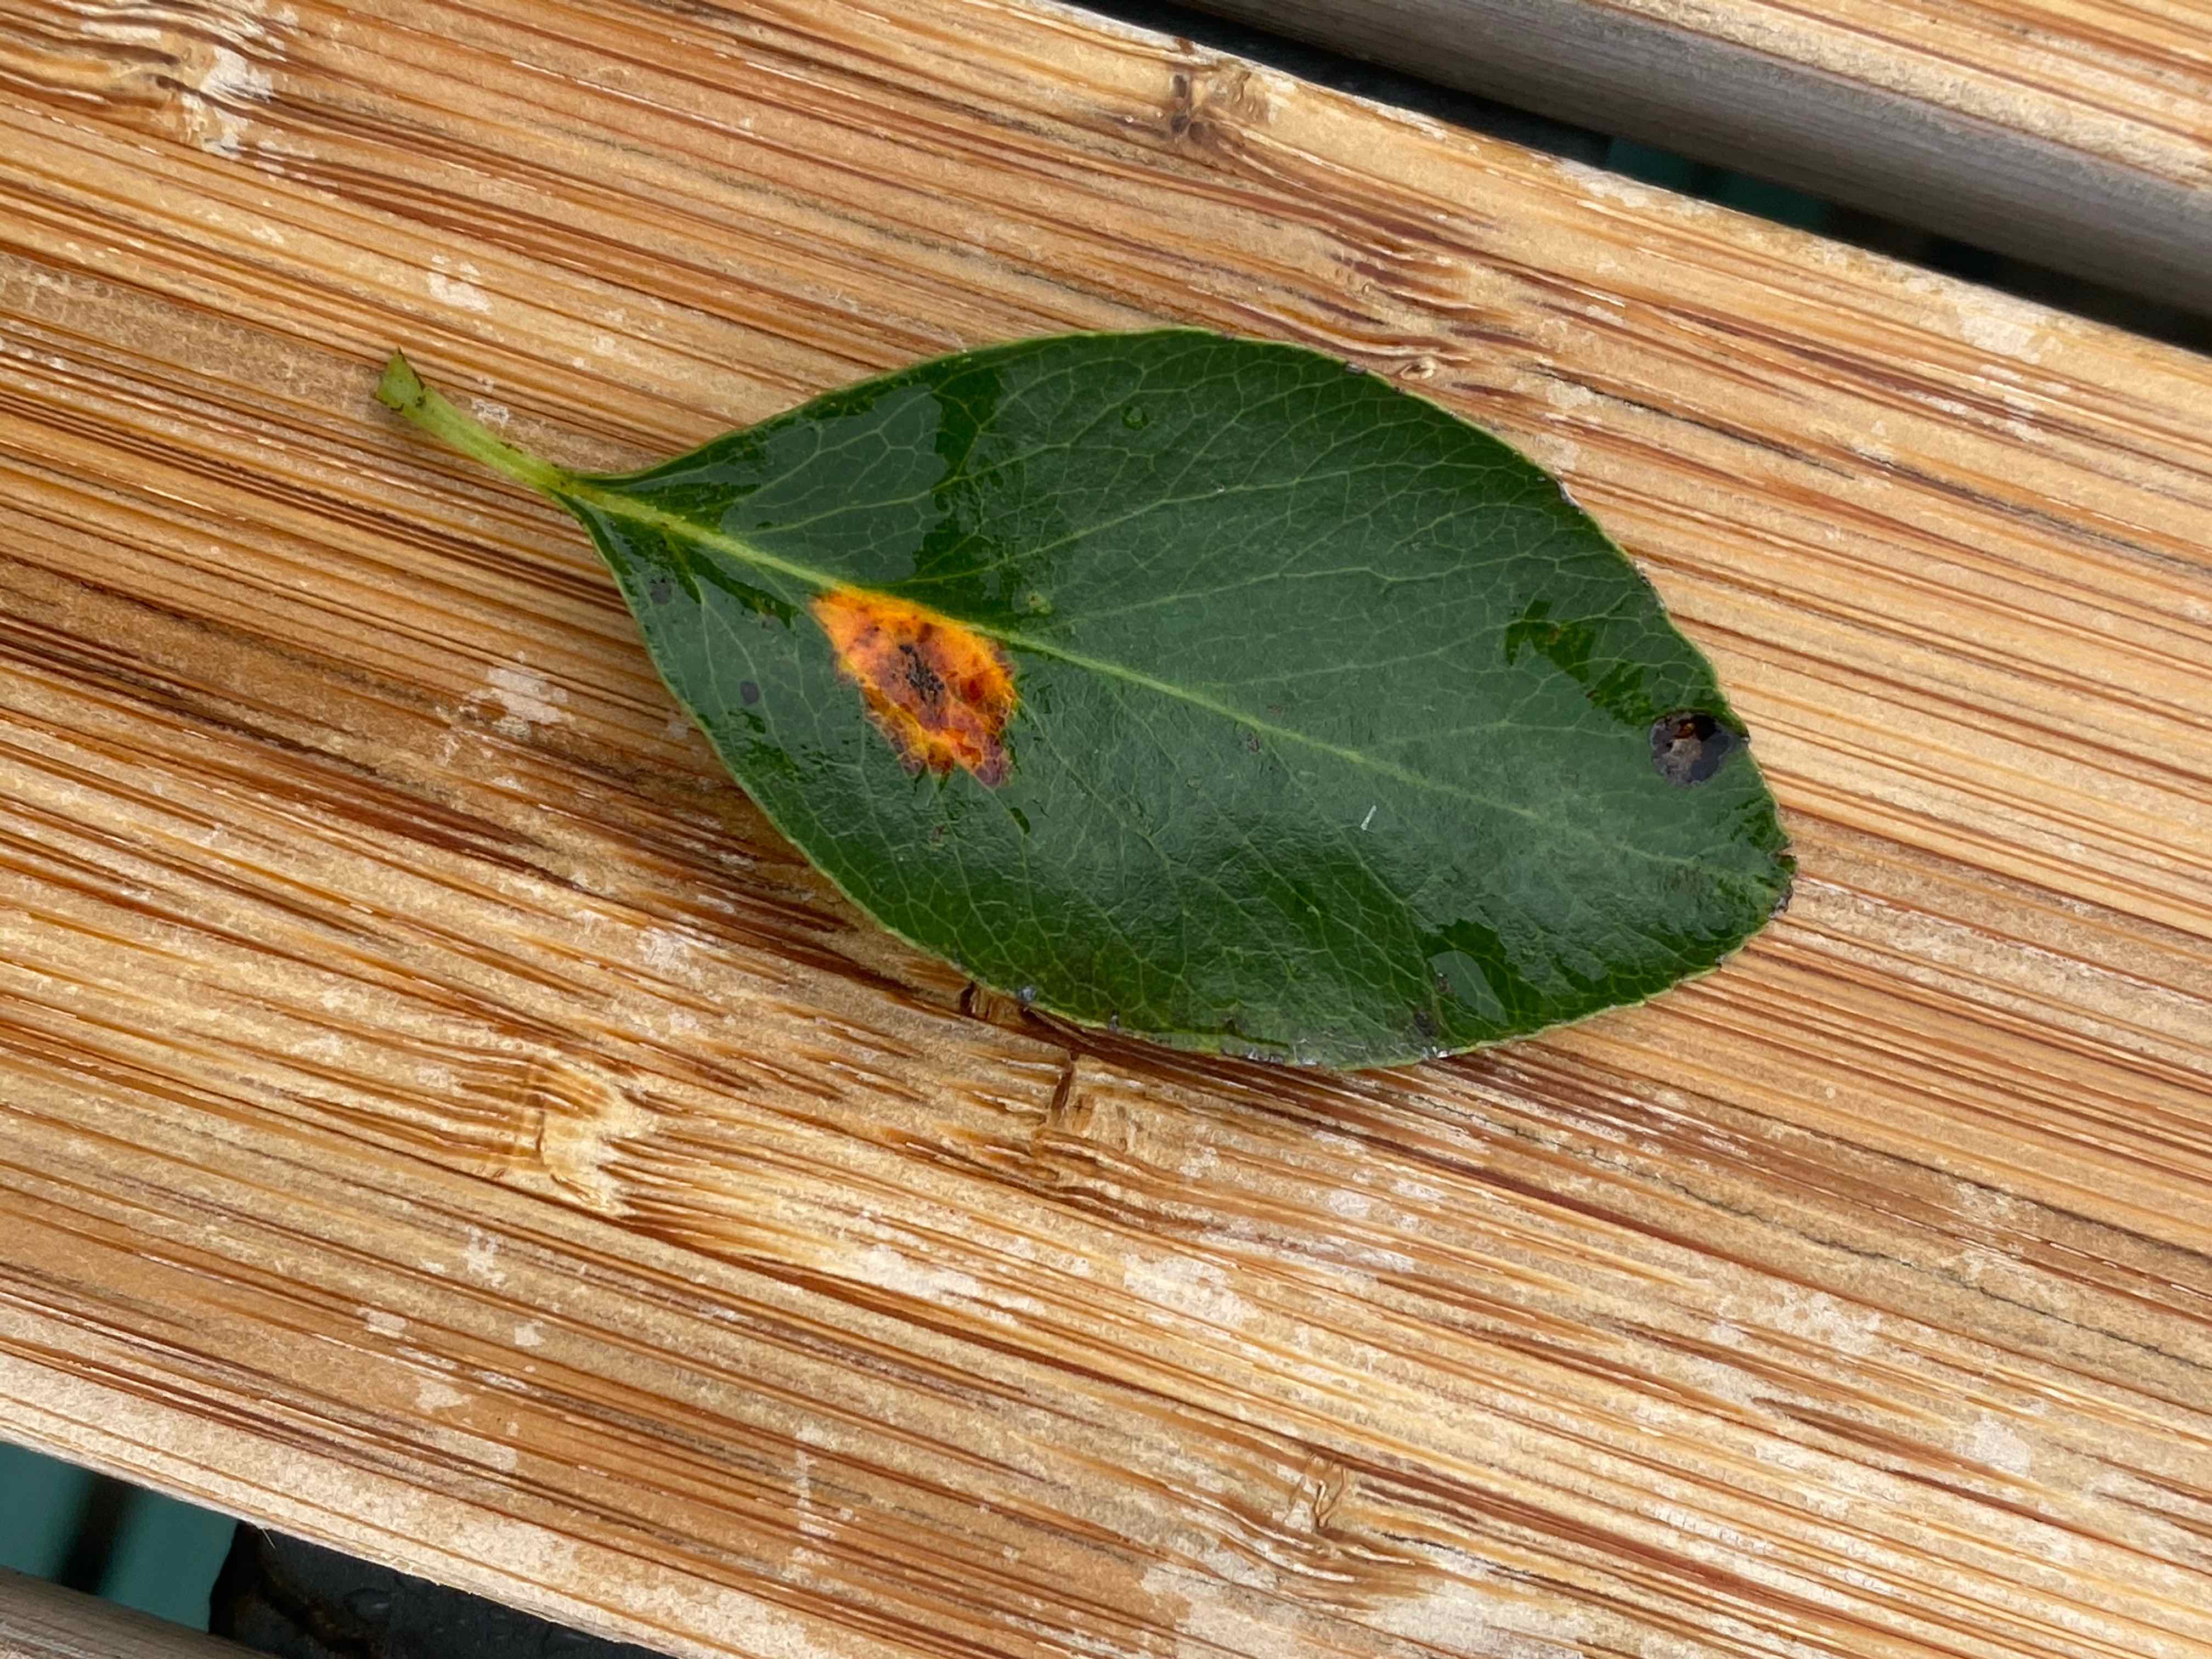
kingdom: Fungi
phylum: Basidiomycota
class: Pucciniomycetes
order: Pucciniales
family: Gymnosporangiaceae
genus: Gymnosporangium
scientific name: Gymnosporangium sabinae
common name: pæregitter-bævrerust
